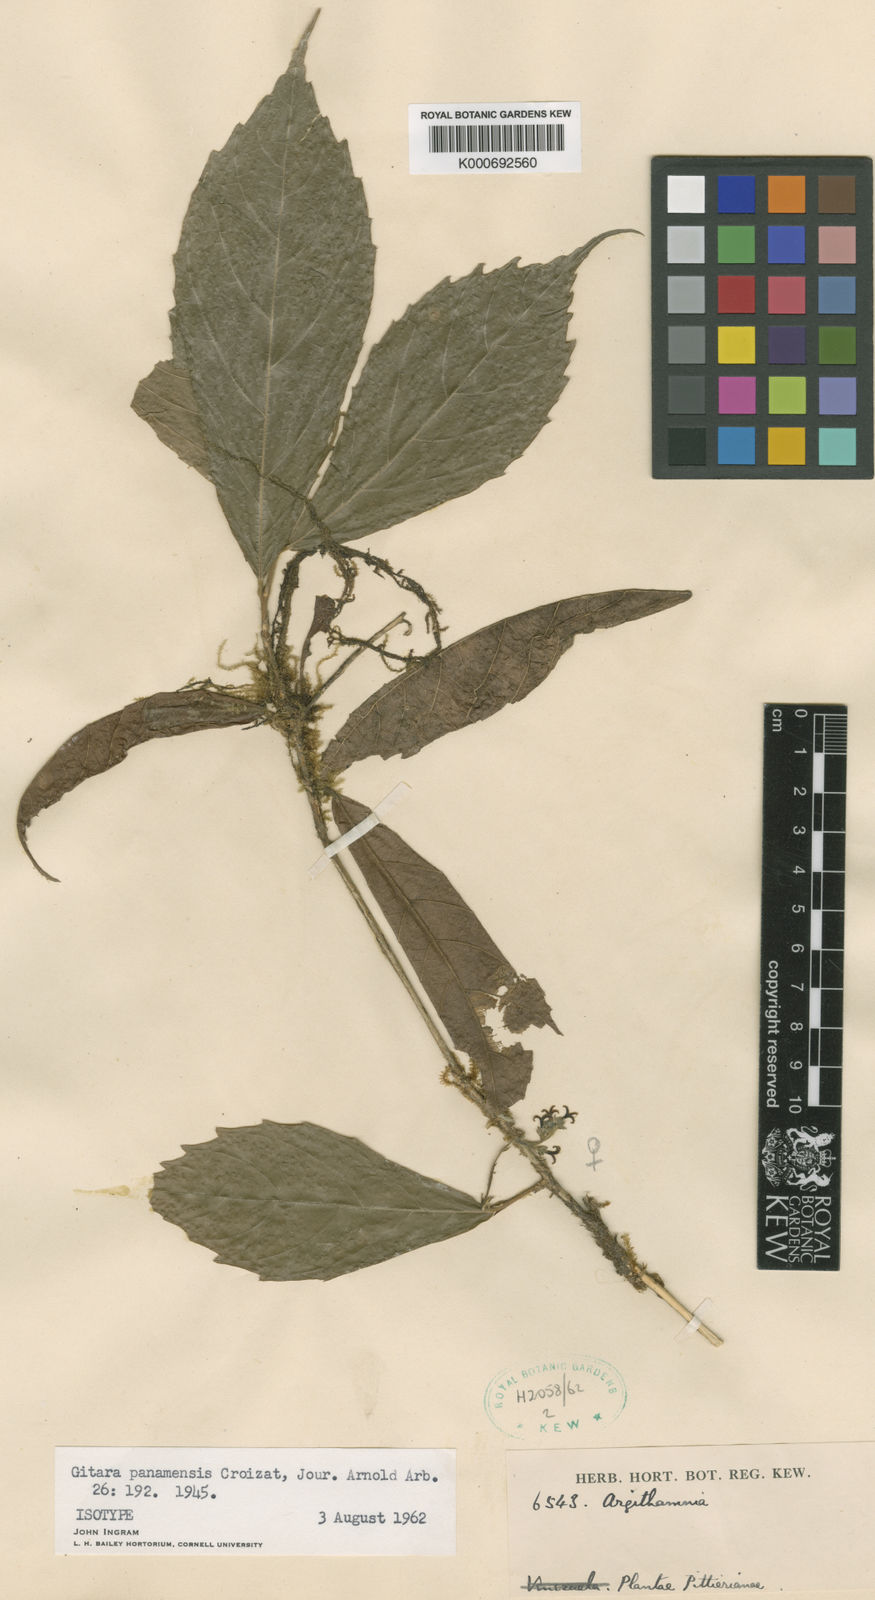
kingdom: Plantae
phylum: Tracheophyta
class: Magnoliopsida
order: Malpighiales
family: Euphorbiaceae
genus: Gitara
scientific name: Gitara nicaraguensis
